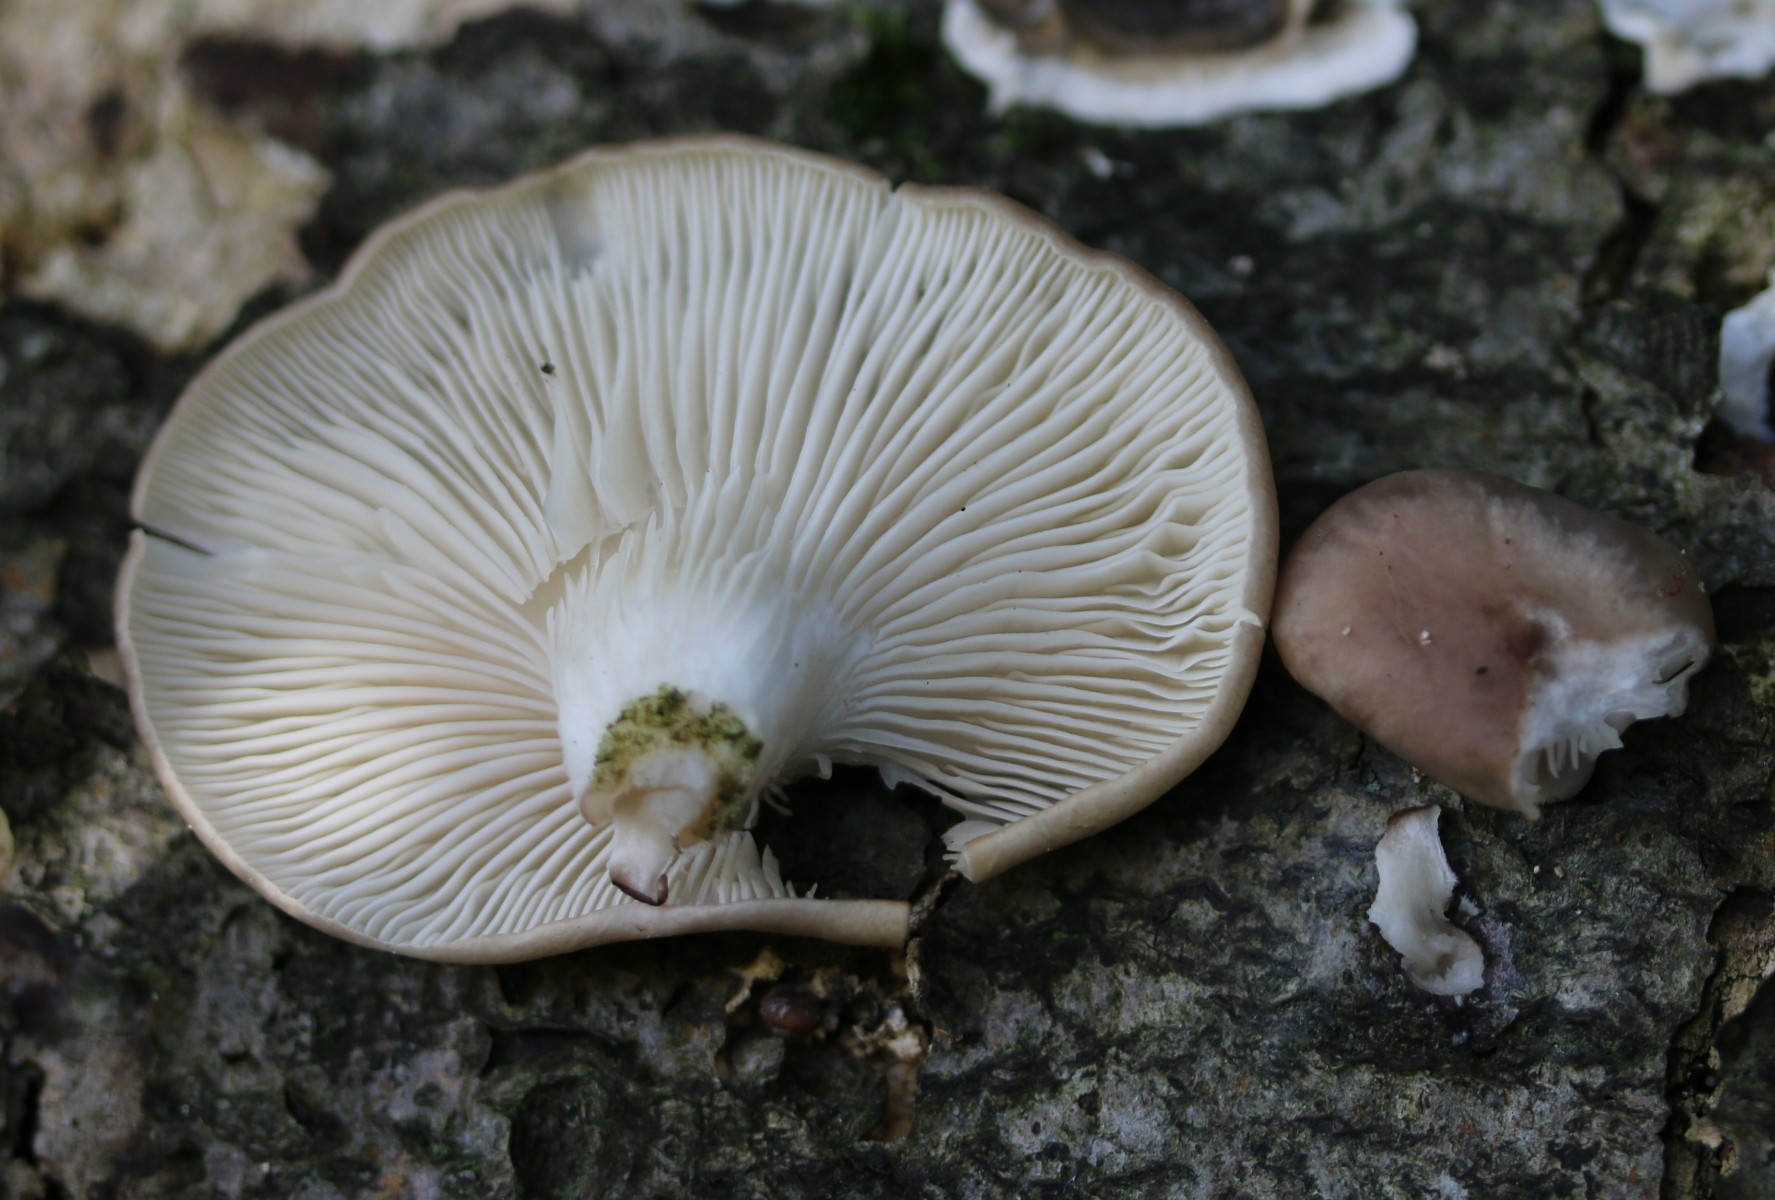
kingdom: Fungi
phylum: Basidiomycota
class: Agaricomycetes
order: Agaricales
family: Pleurotaceae
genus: Pleurotus
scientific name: Pleurotus ostreatus
